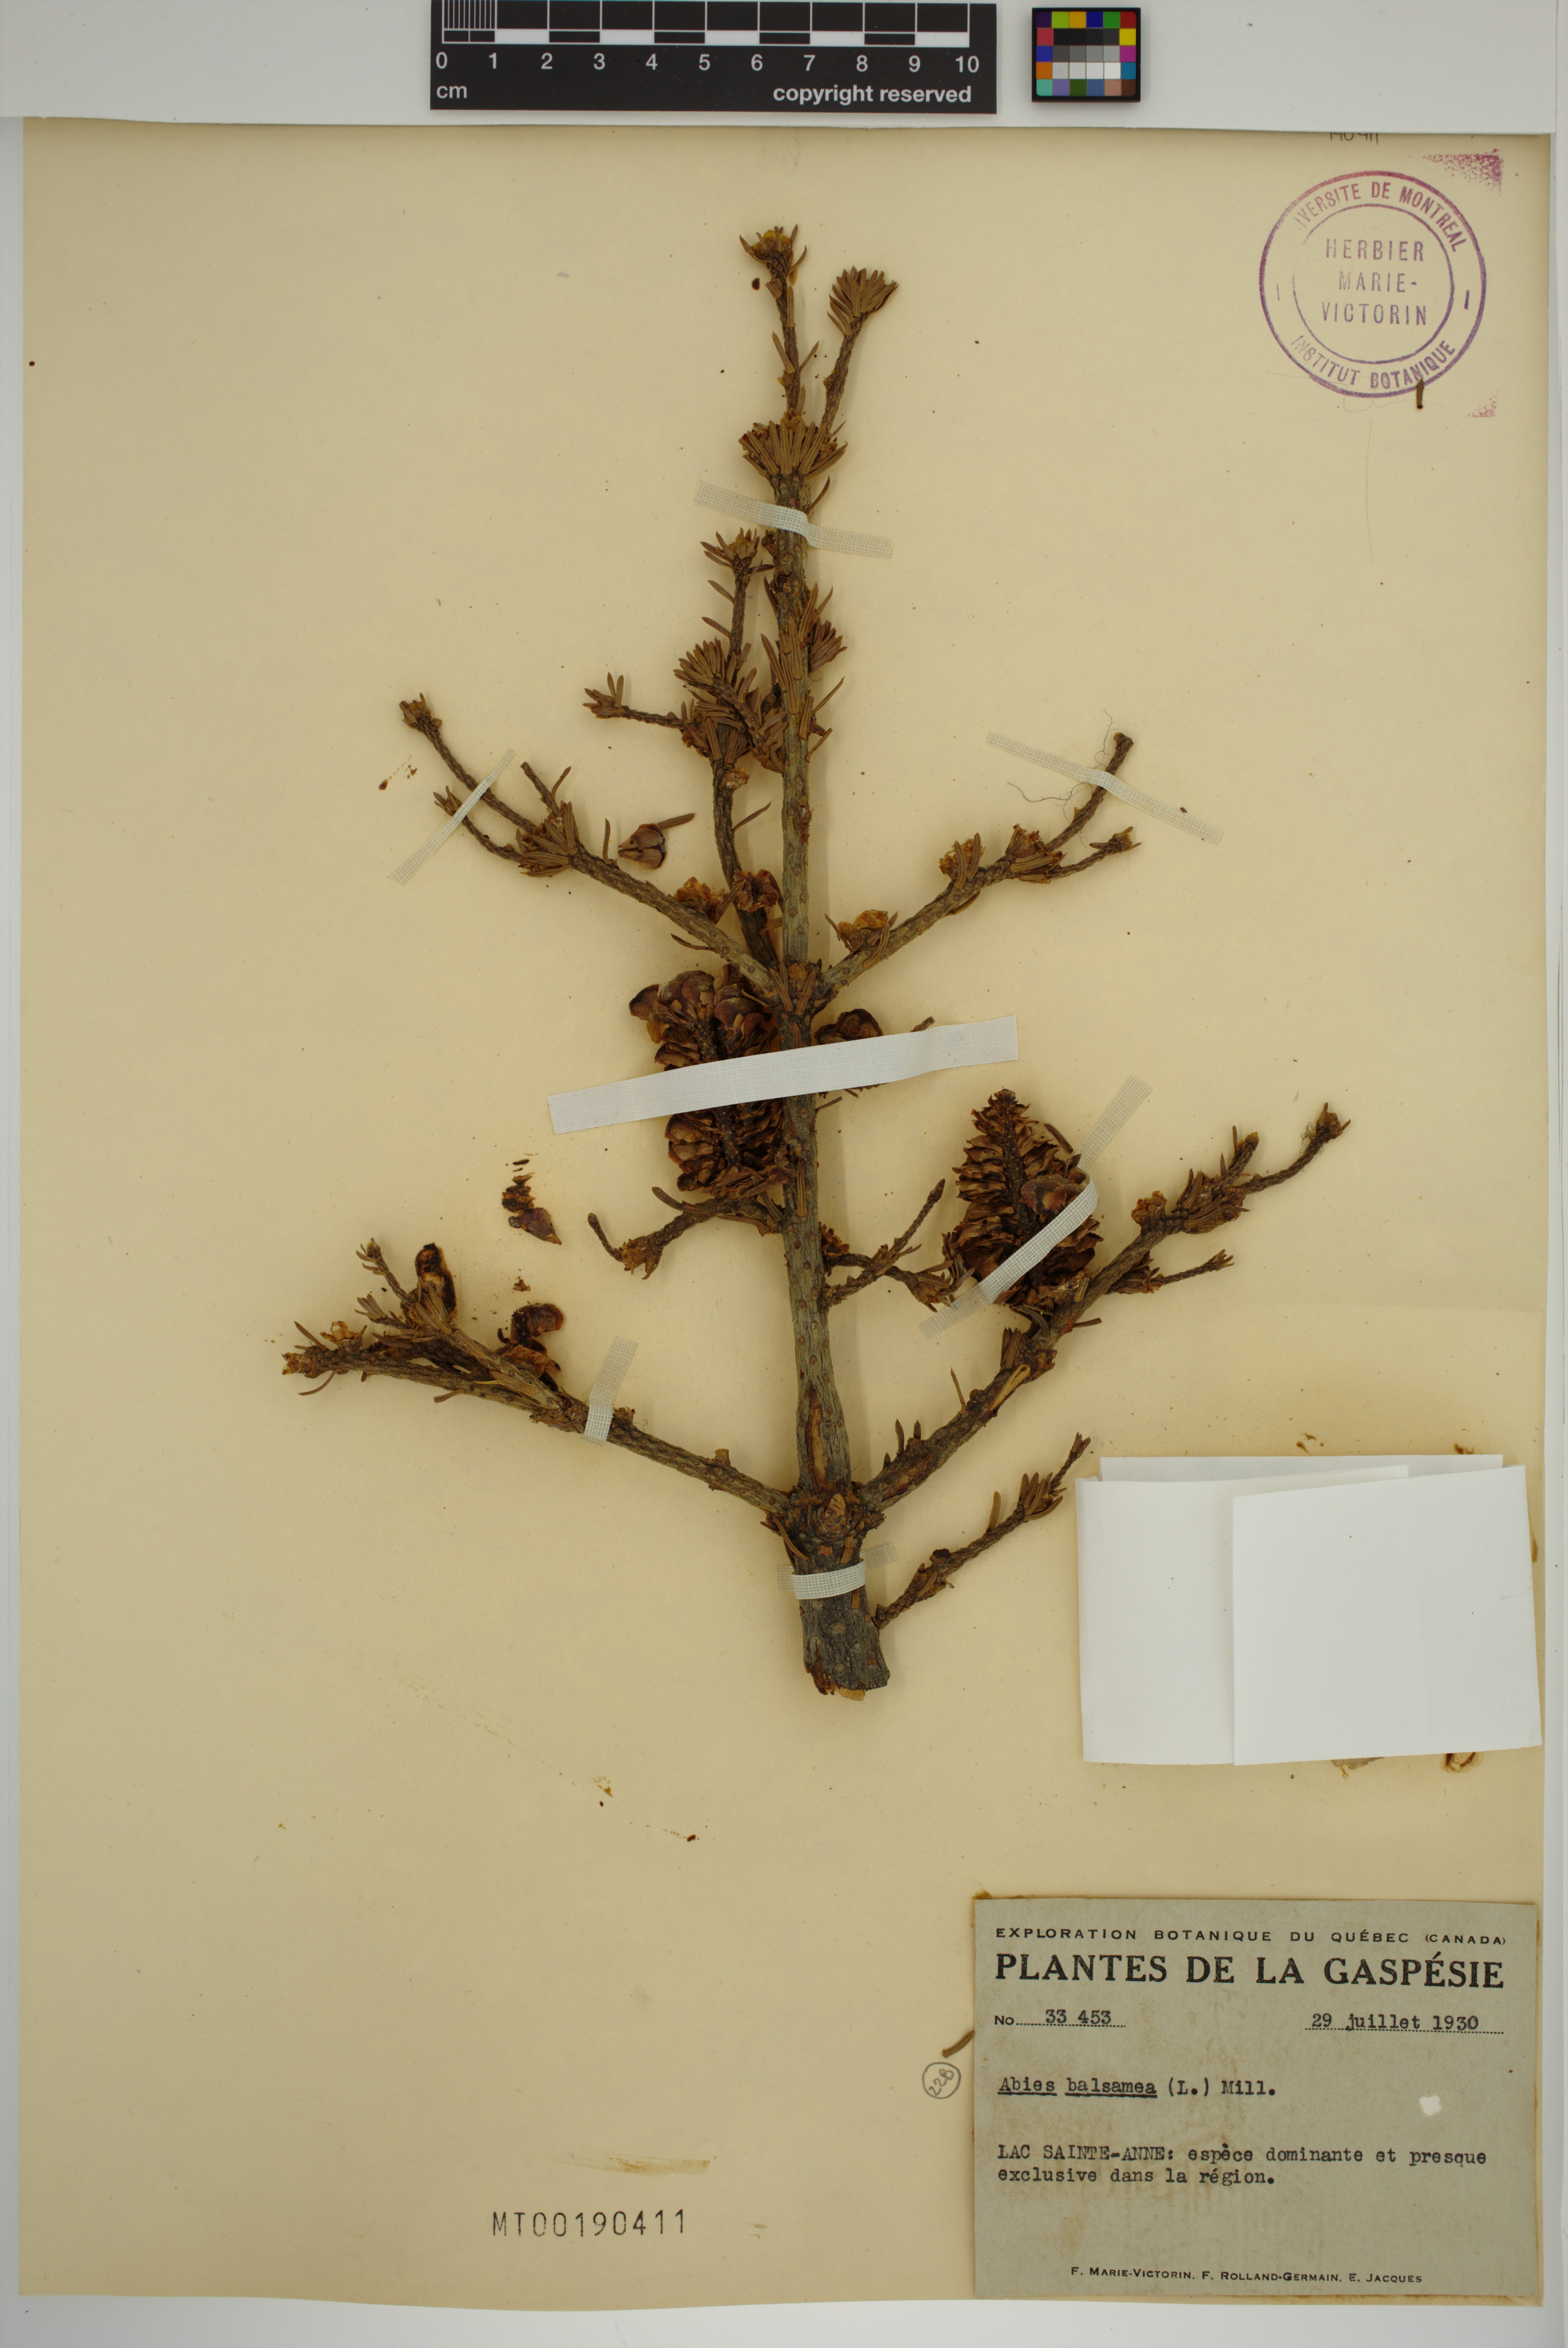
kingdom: Plantae
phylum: Tracheophyta
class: Pinopsida
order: Pinales
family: Pinaceae
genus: Abies
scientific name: Abies balsamea
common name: Balsam fir
